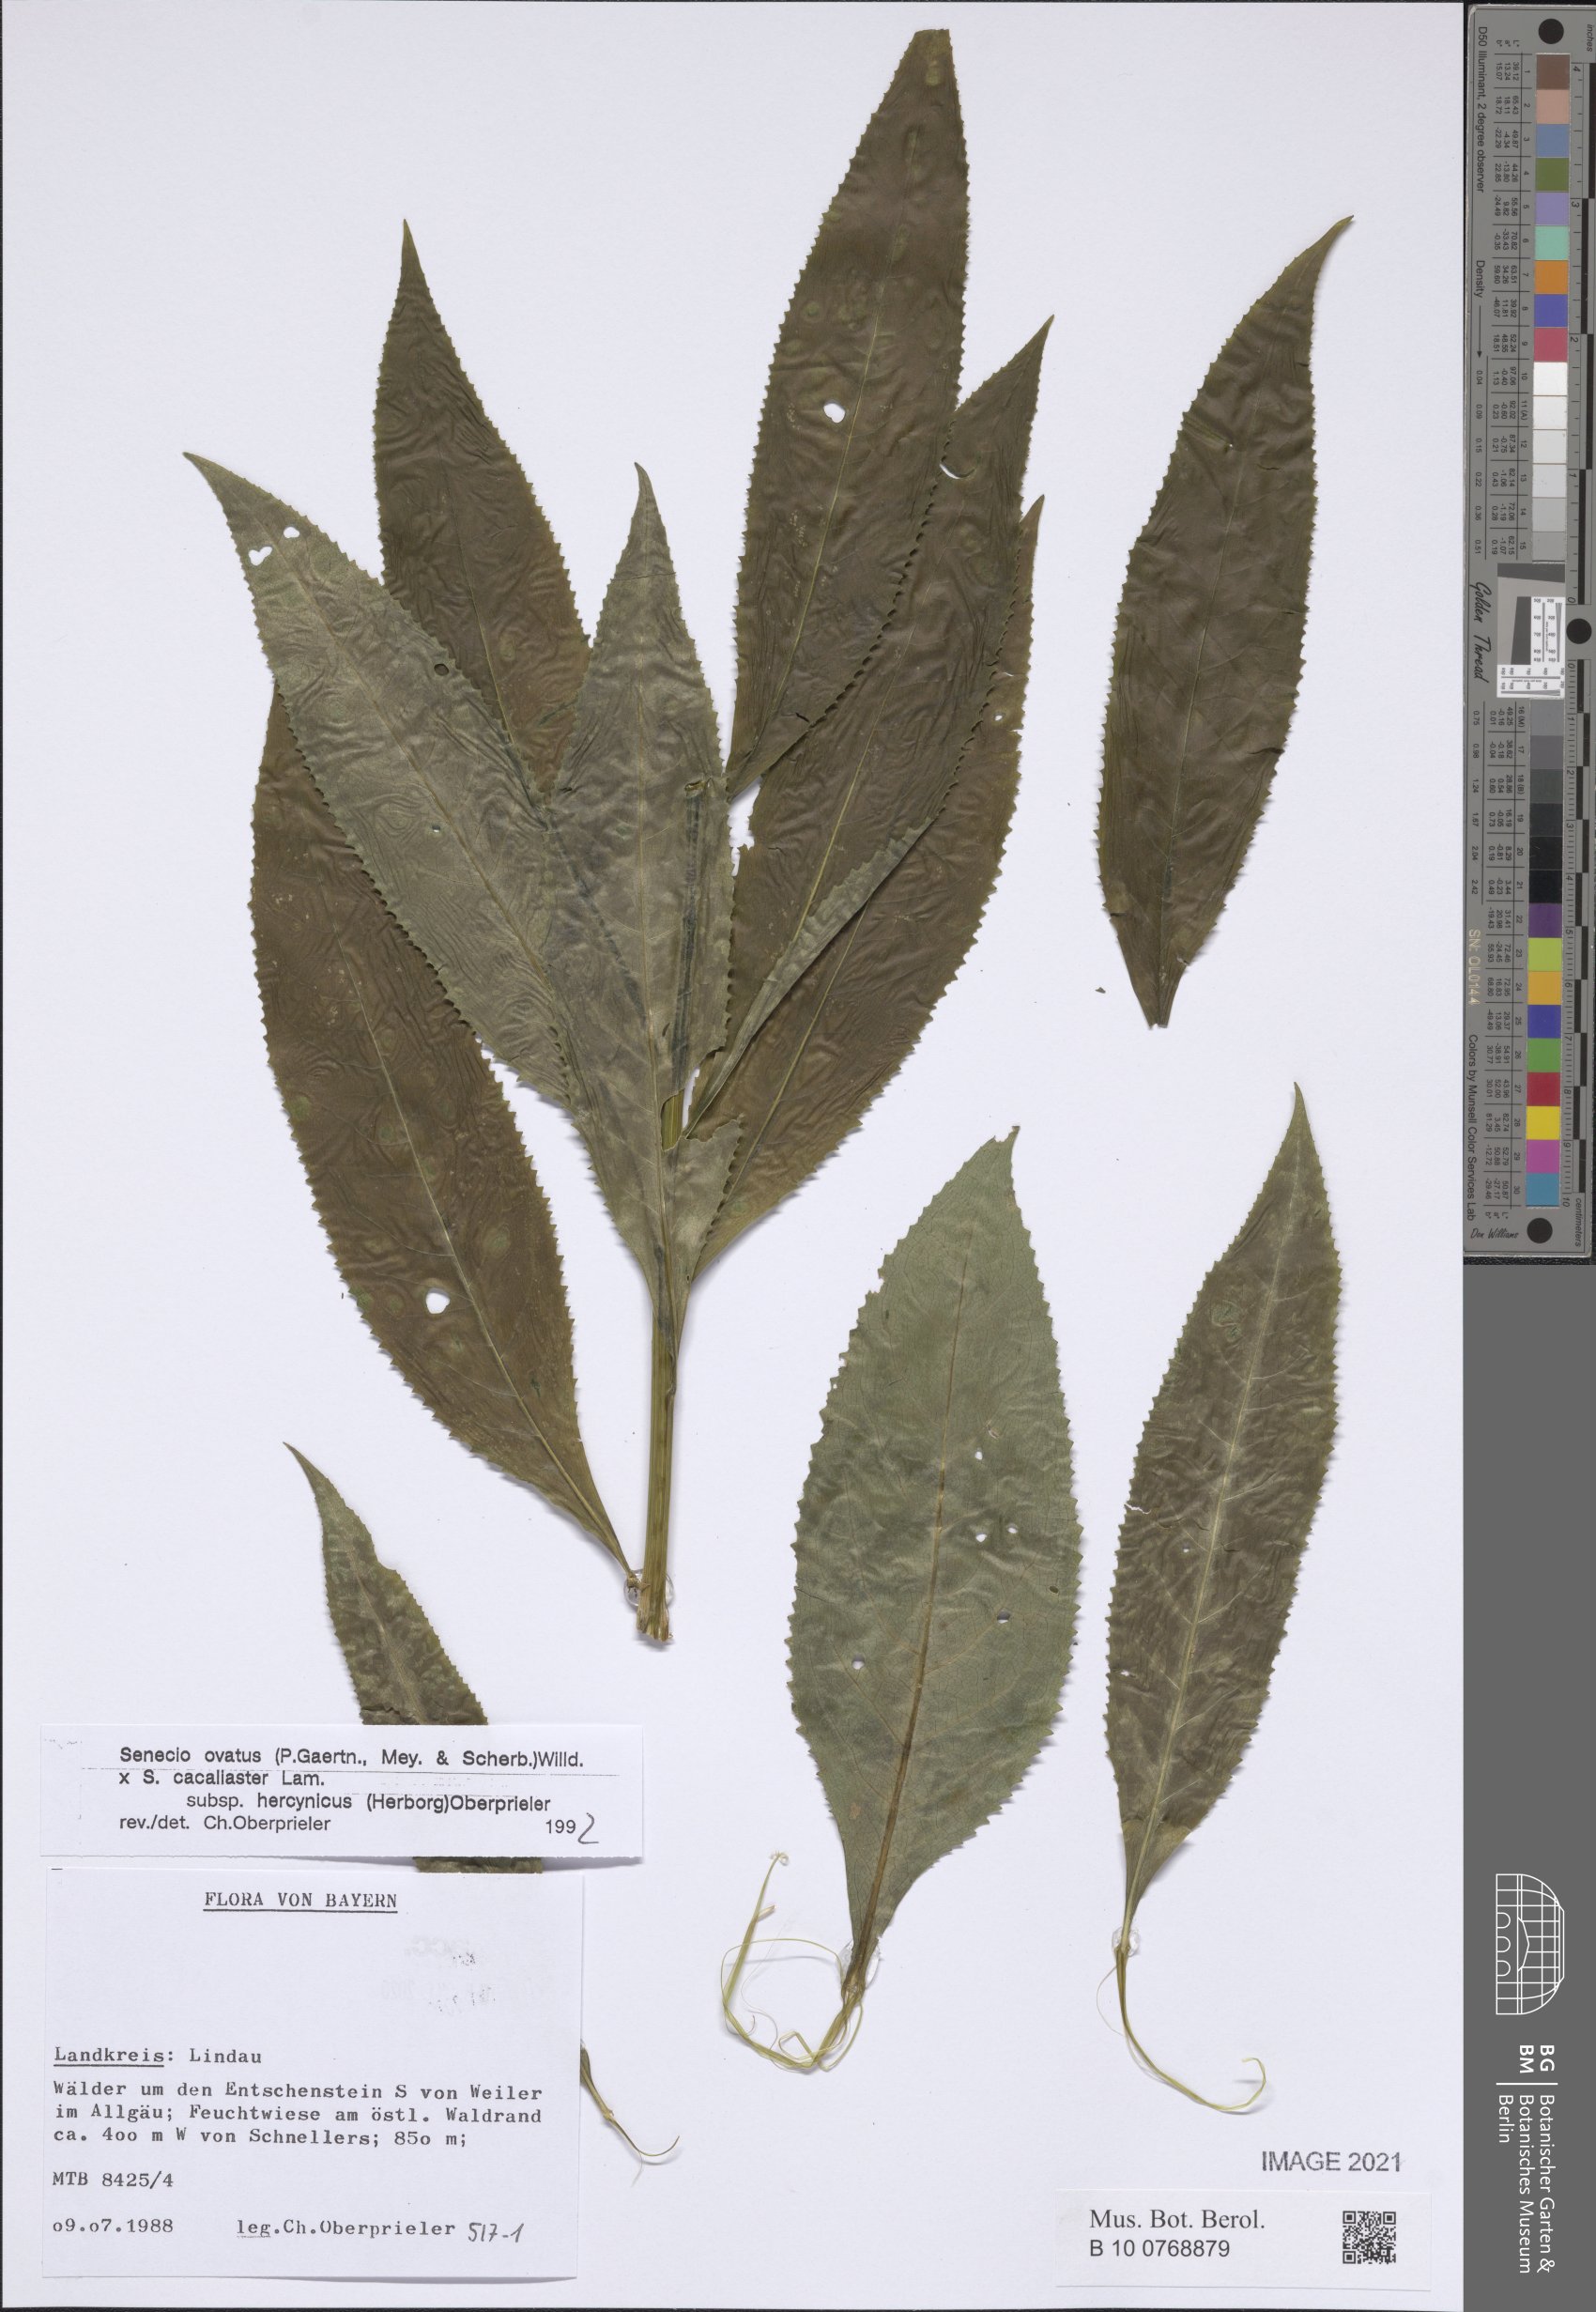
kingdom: Plantae
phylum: Tracheophyta
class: Magnoliopsida
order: Asterales
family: Asteraceae
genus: Senecio
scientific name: Senecio ovatus
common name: Wood ragwort
